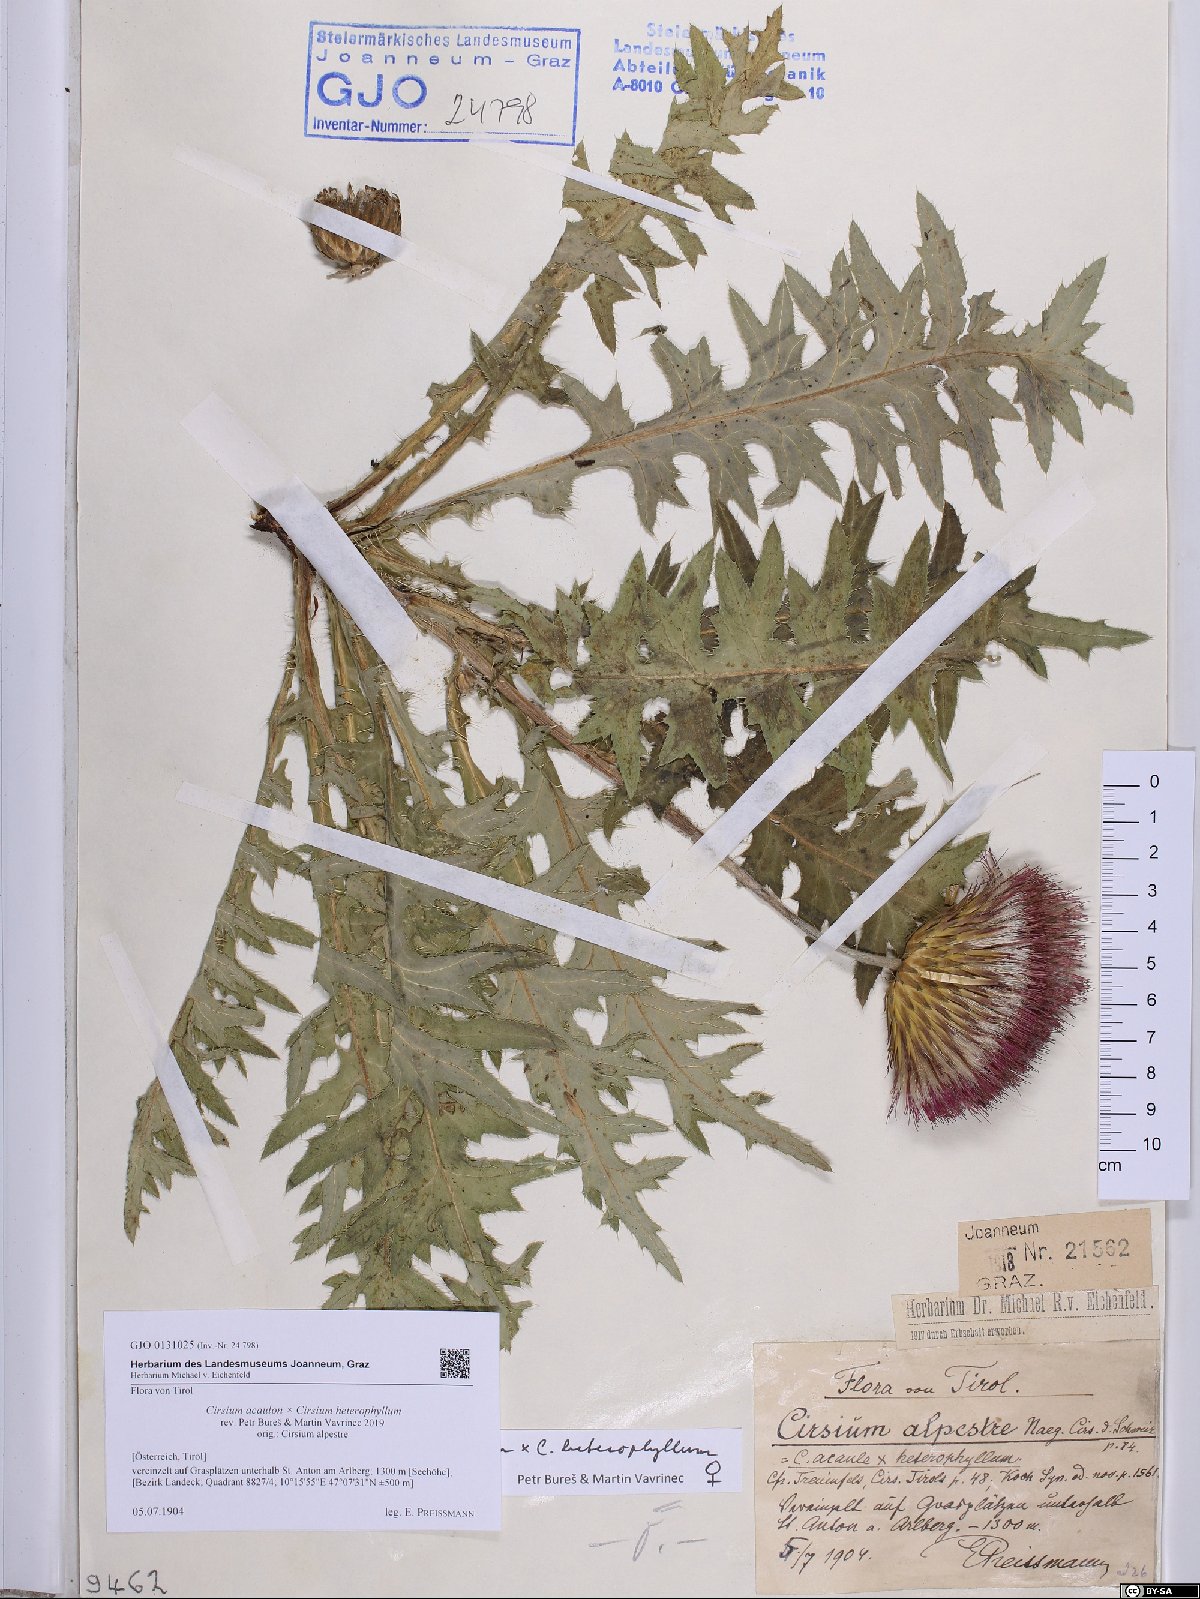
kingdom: Plantae
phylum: Tracheophyta
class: Magnoliopsida
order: Asterales
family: Asteraceae
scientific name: Asteraceae
